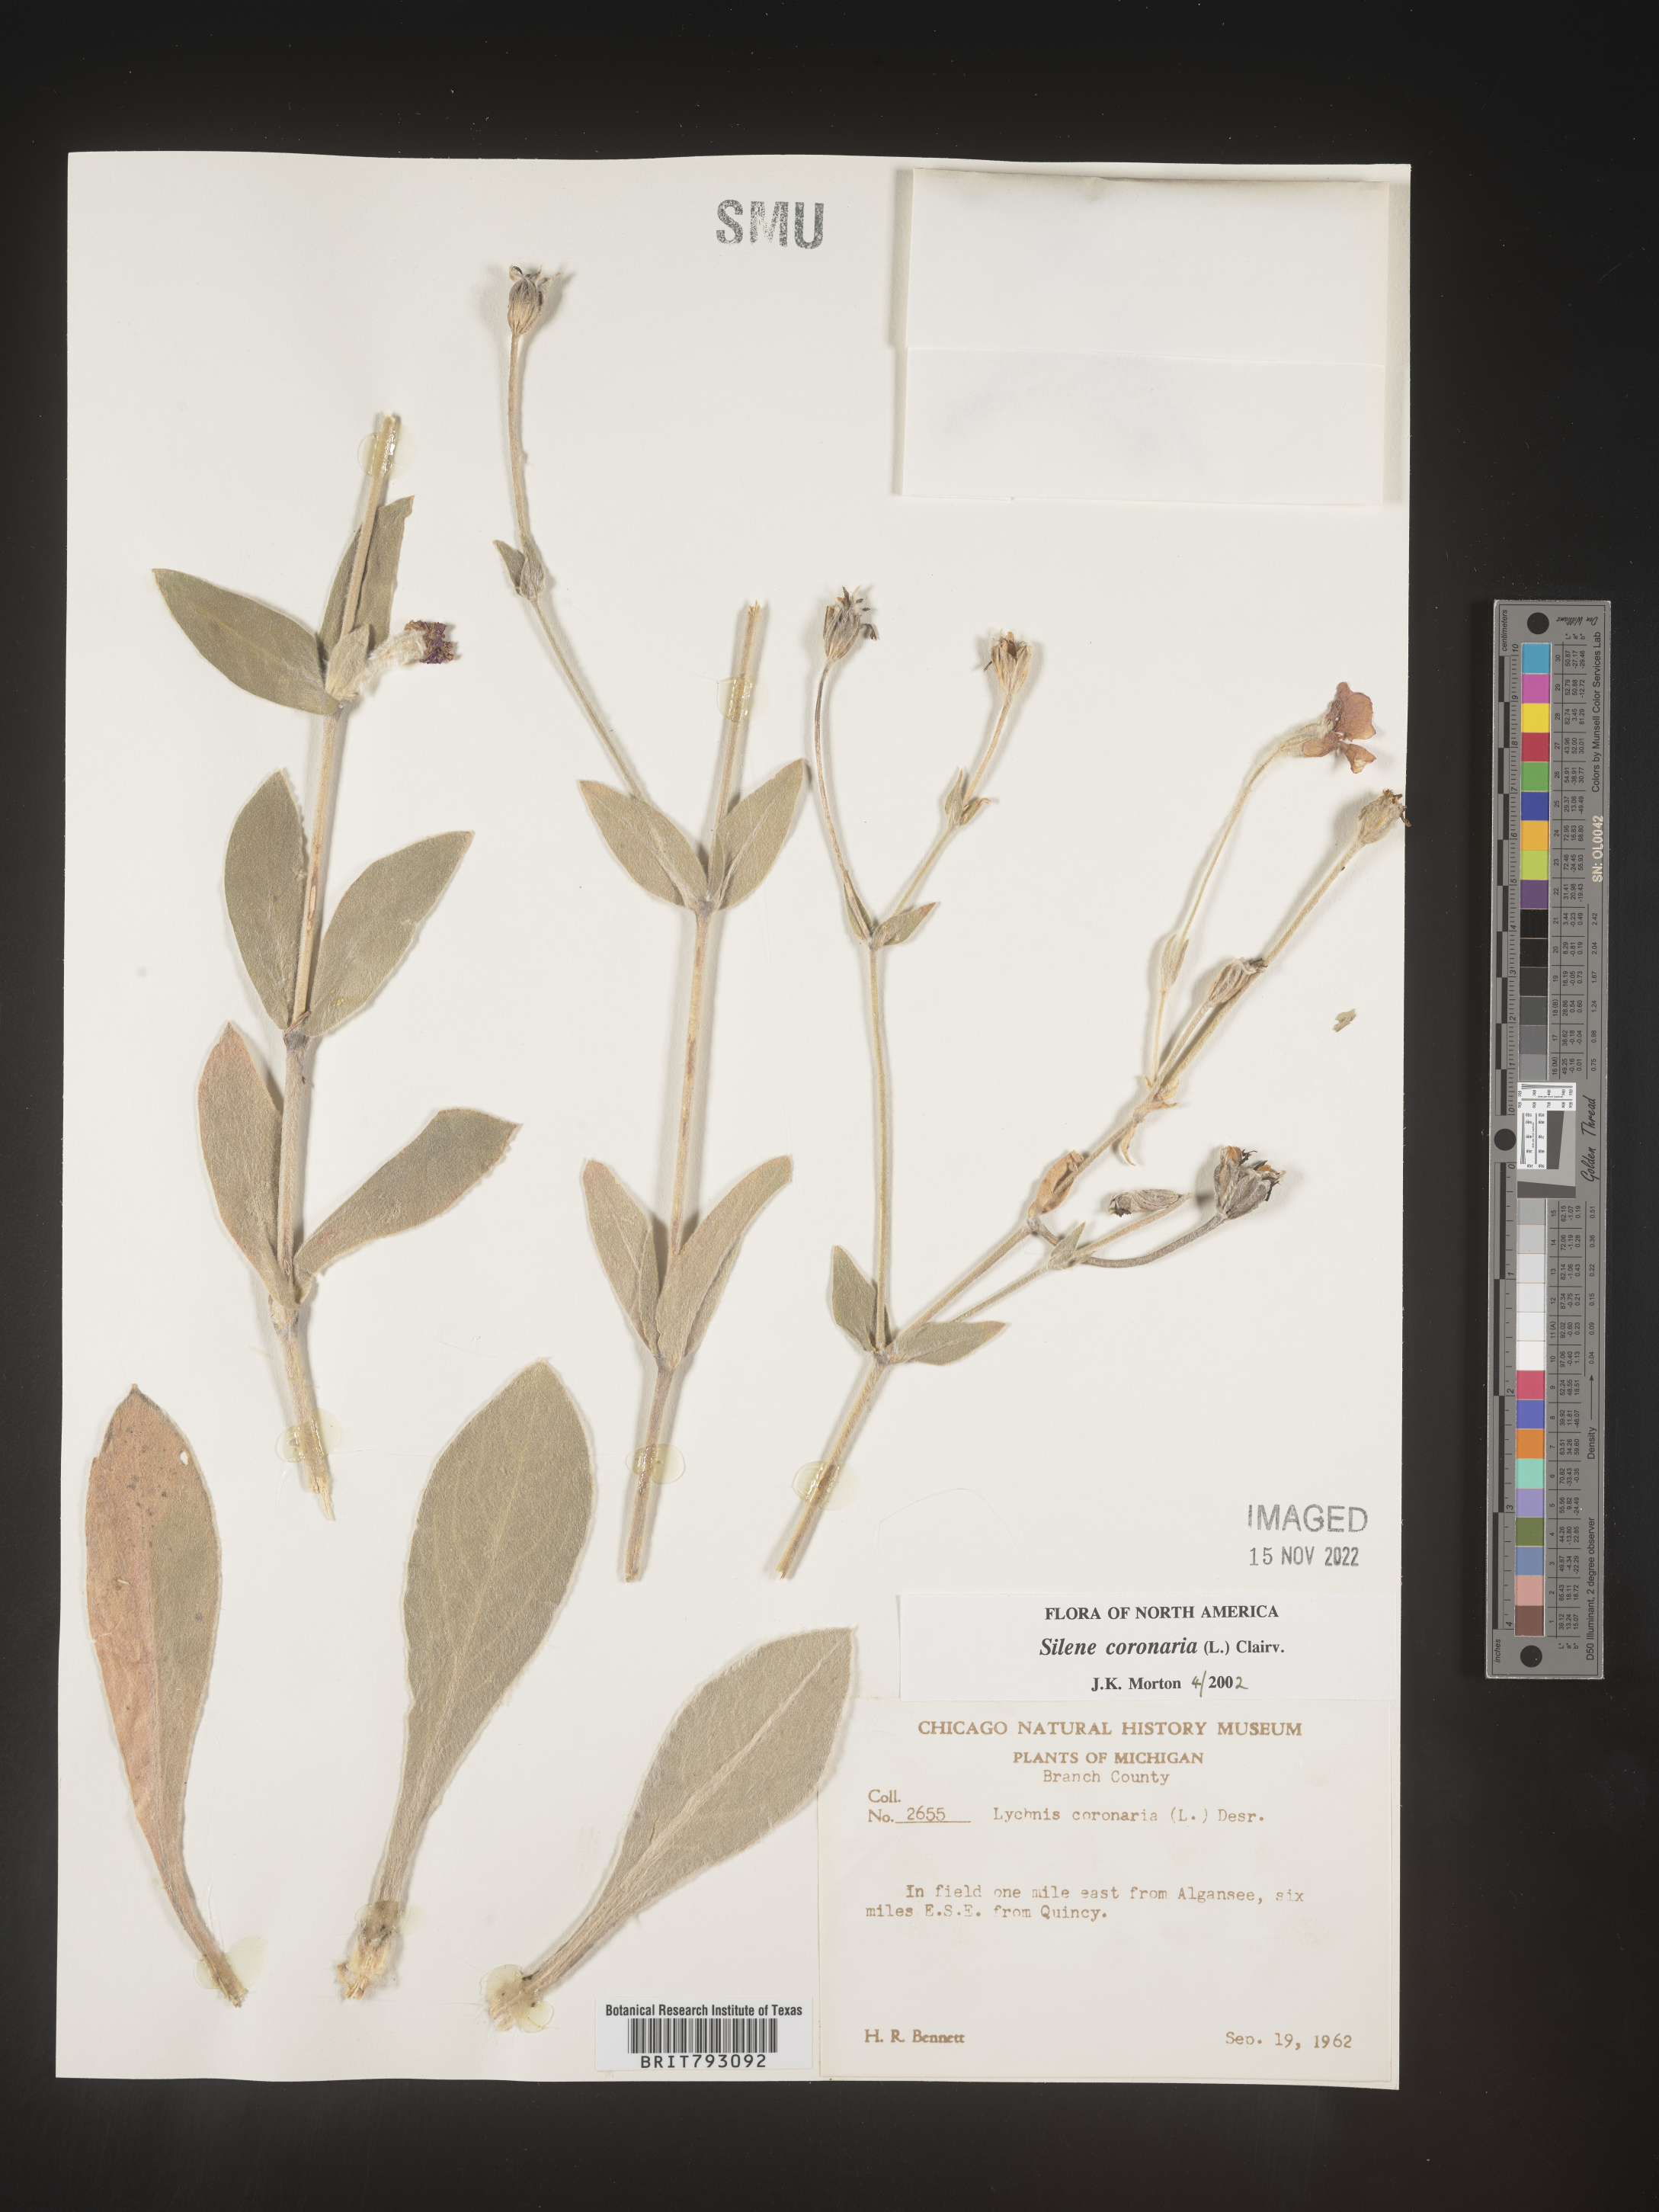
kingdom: Plantae
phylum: Tracheophyta
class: Magnoliopsida
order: Caryophyllales
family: Caryophyllaceae
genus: Silene
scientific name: Silene coronaria
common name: Rose campion
